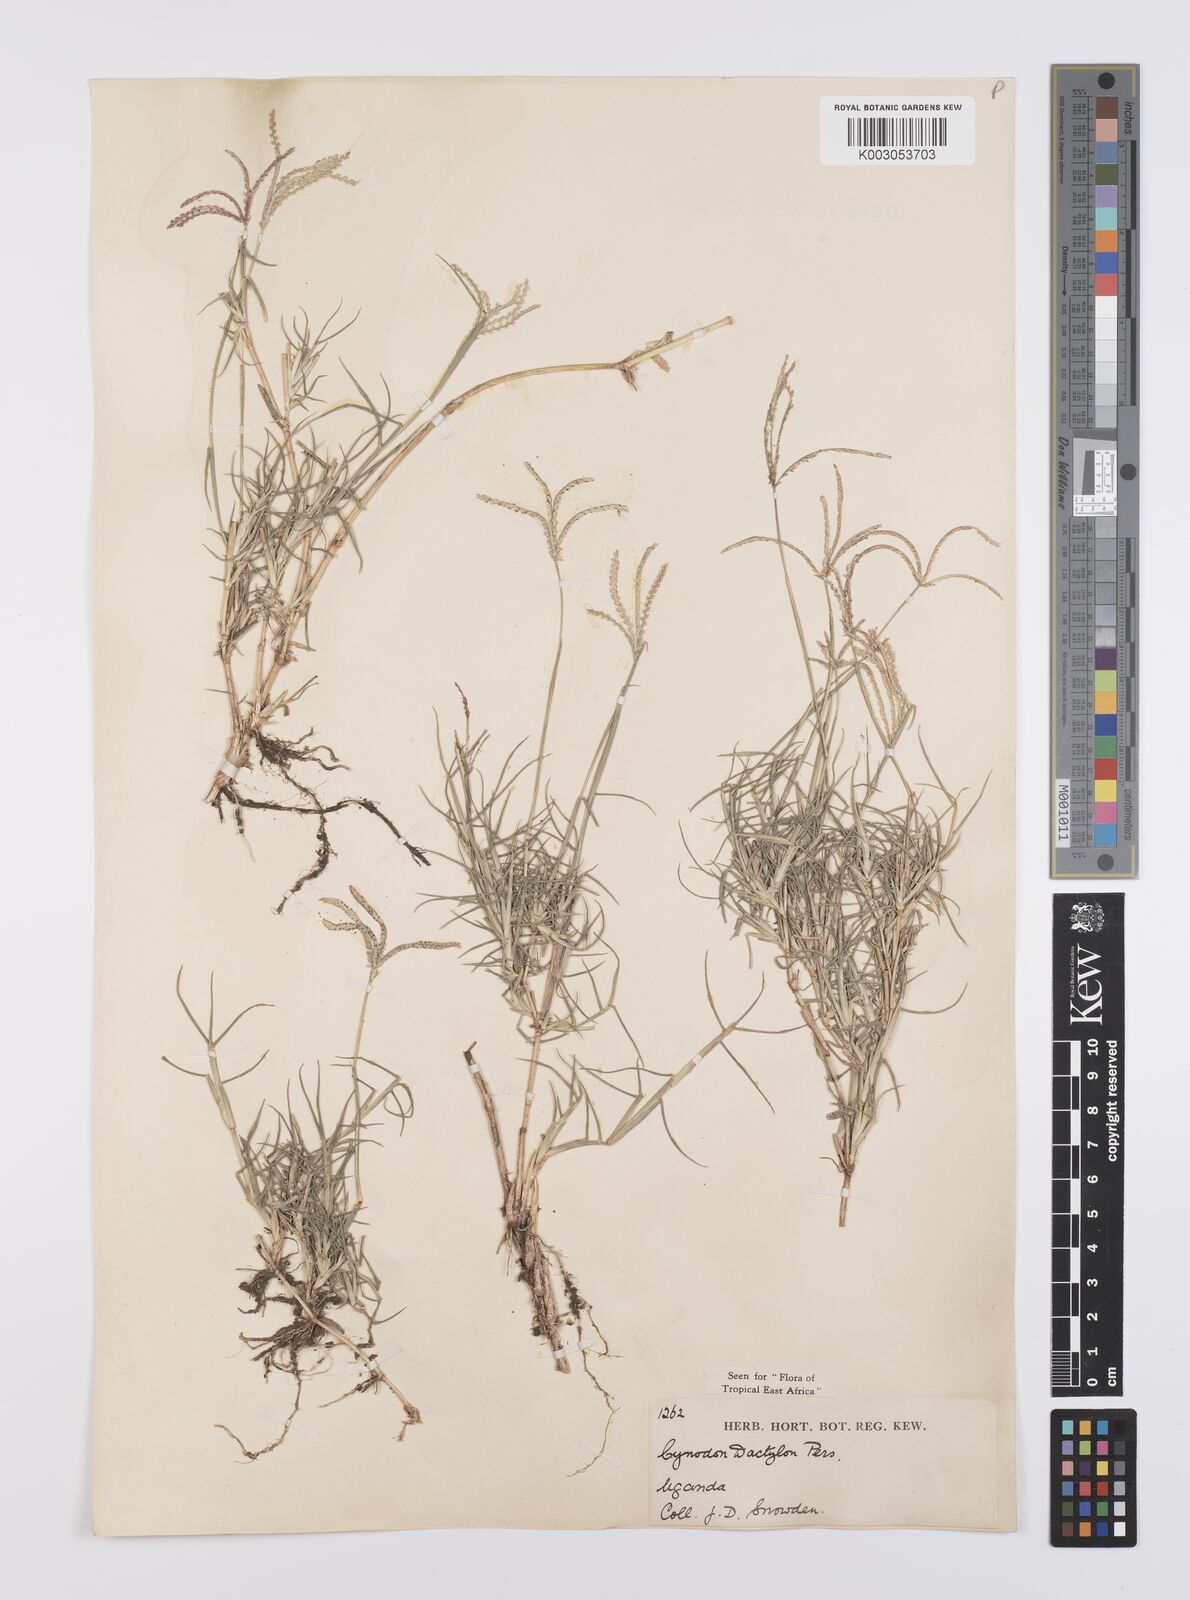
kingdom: Plantae
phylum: Tracheophyta
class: Liliopsida
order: Poales
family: Poaceae
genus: Cynodon
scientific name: Cynodon dactylon
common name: Bermuda grass
